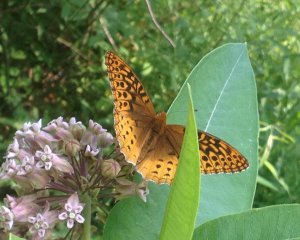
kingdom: Animalia
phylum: Arthropoda
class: Insecta
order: Lepidoptera
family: Nymphalidae
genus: Speyeria
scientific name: Speyeria atlantis
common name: Atlantis Fritillary
